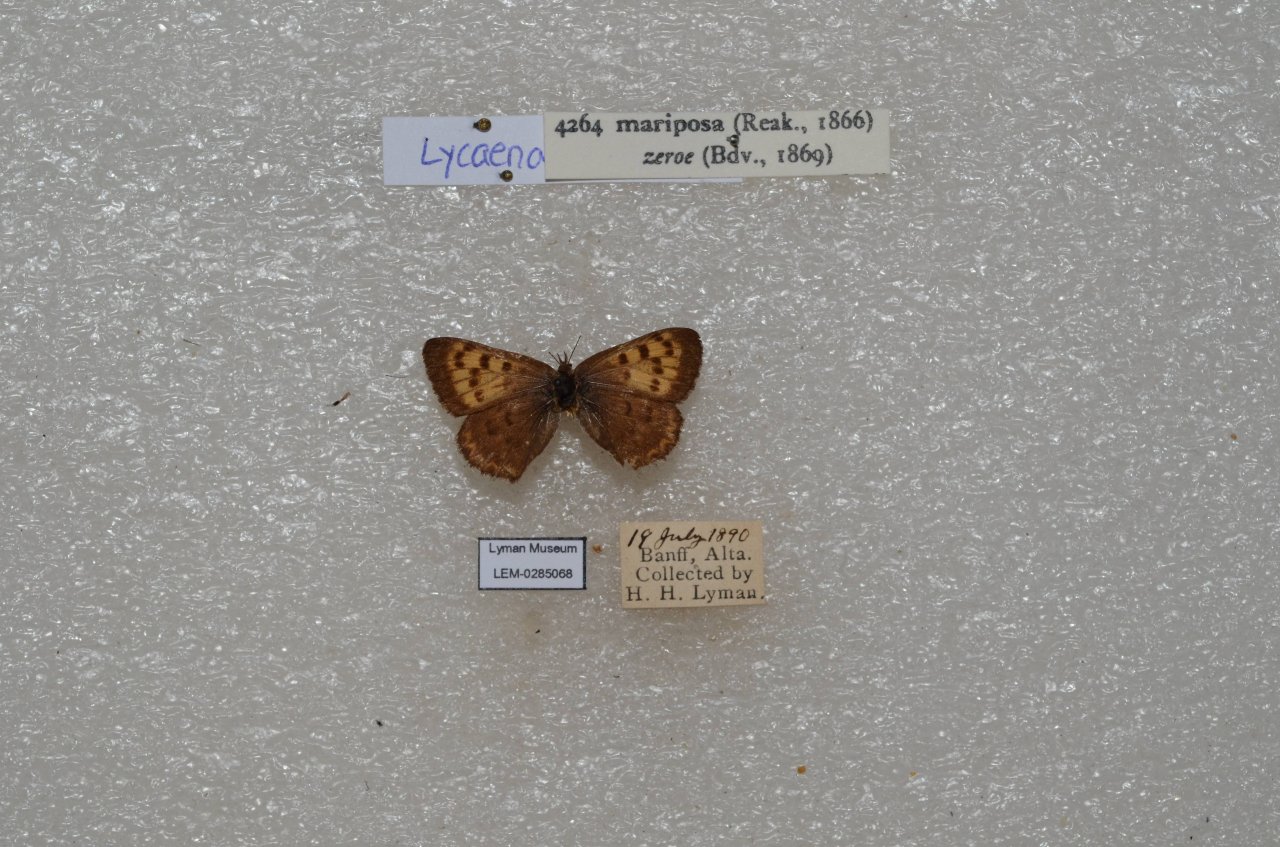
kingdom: Animalia
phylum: Arthropoda
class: Insecta
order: Lepidoptera
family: Lycaenidae
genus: Lycaena
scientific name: Lycaena mariposa
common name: Mariposa Copper
